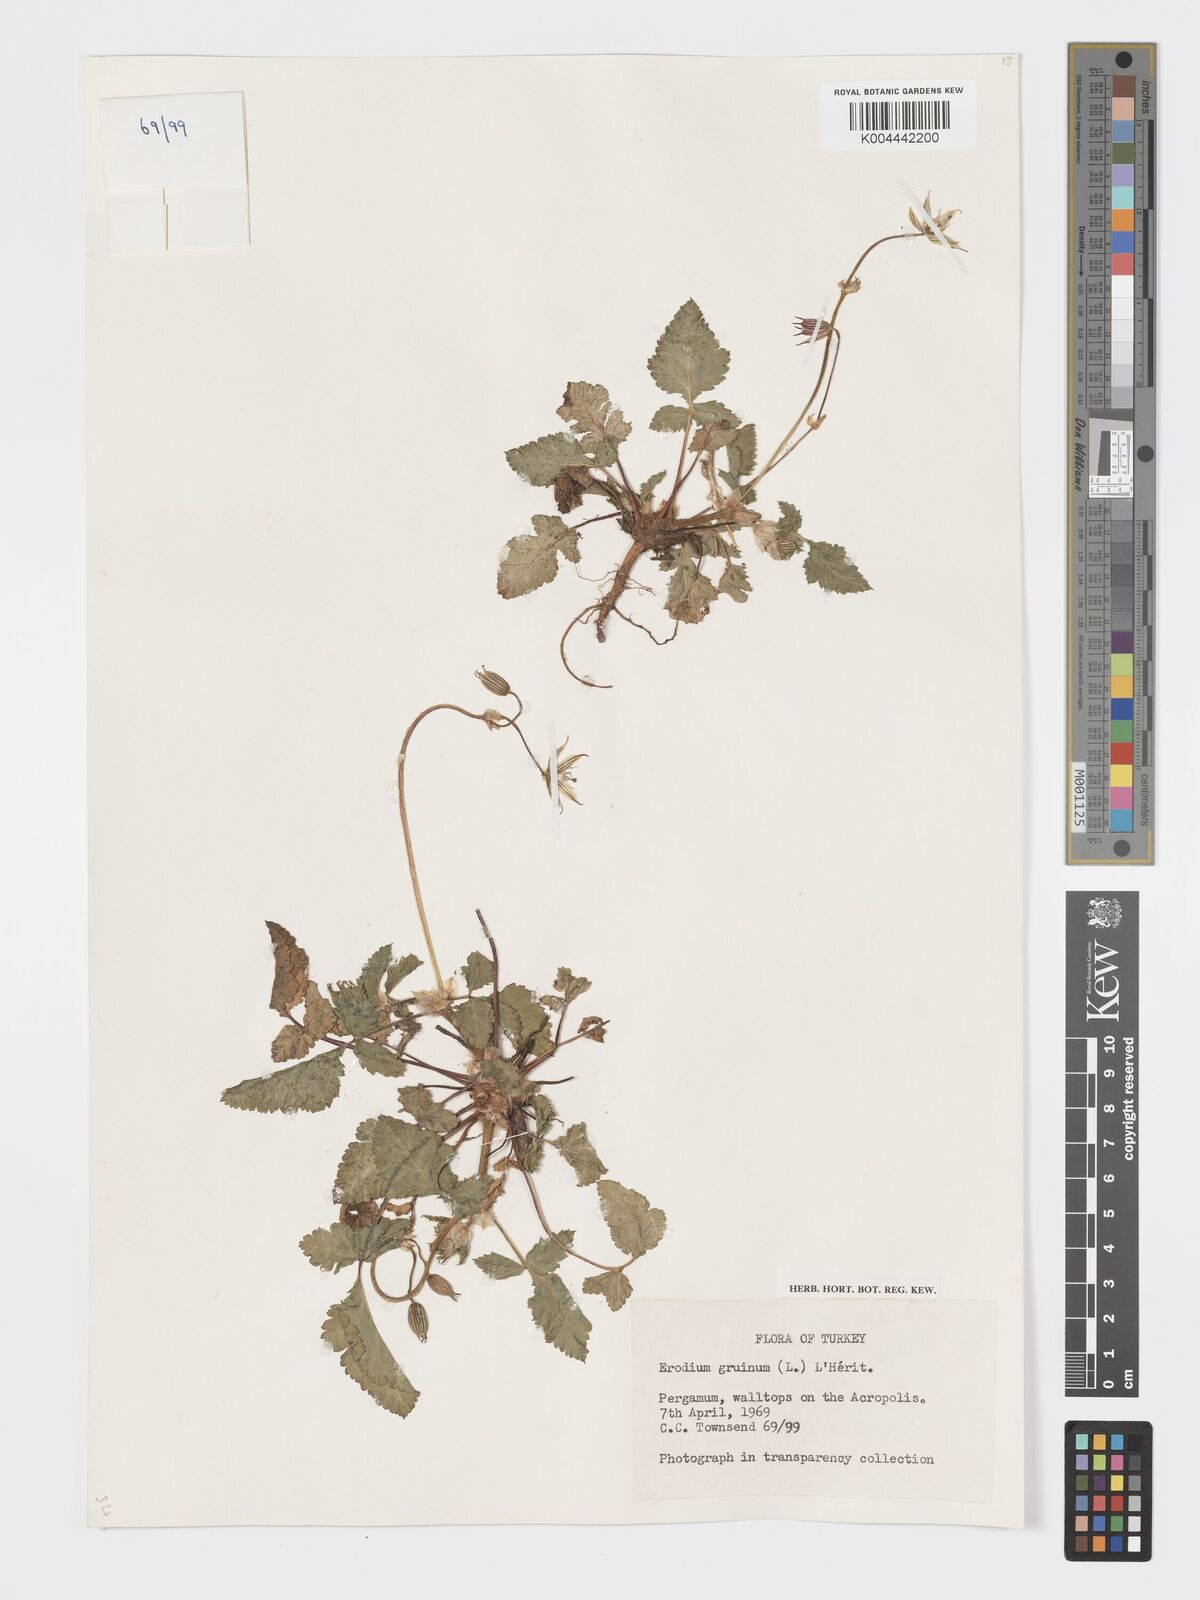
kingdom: Plantae
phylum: Tracheophyta
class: Magnoliopsida
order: Geraniales
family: Geraniaceae
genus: Erodium
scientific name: Erodium gruinum
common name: Iranian stork's bill
